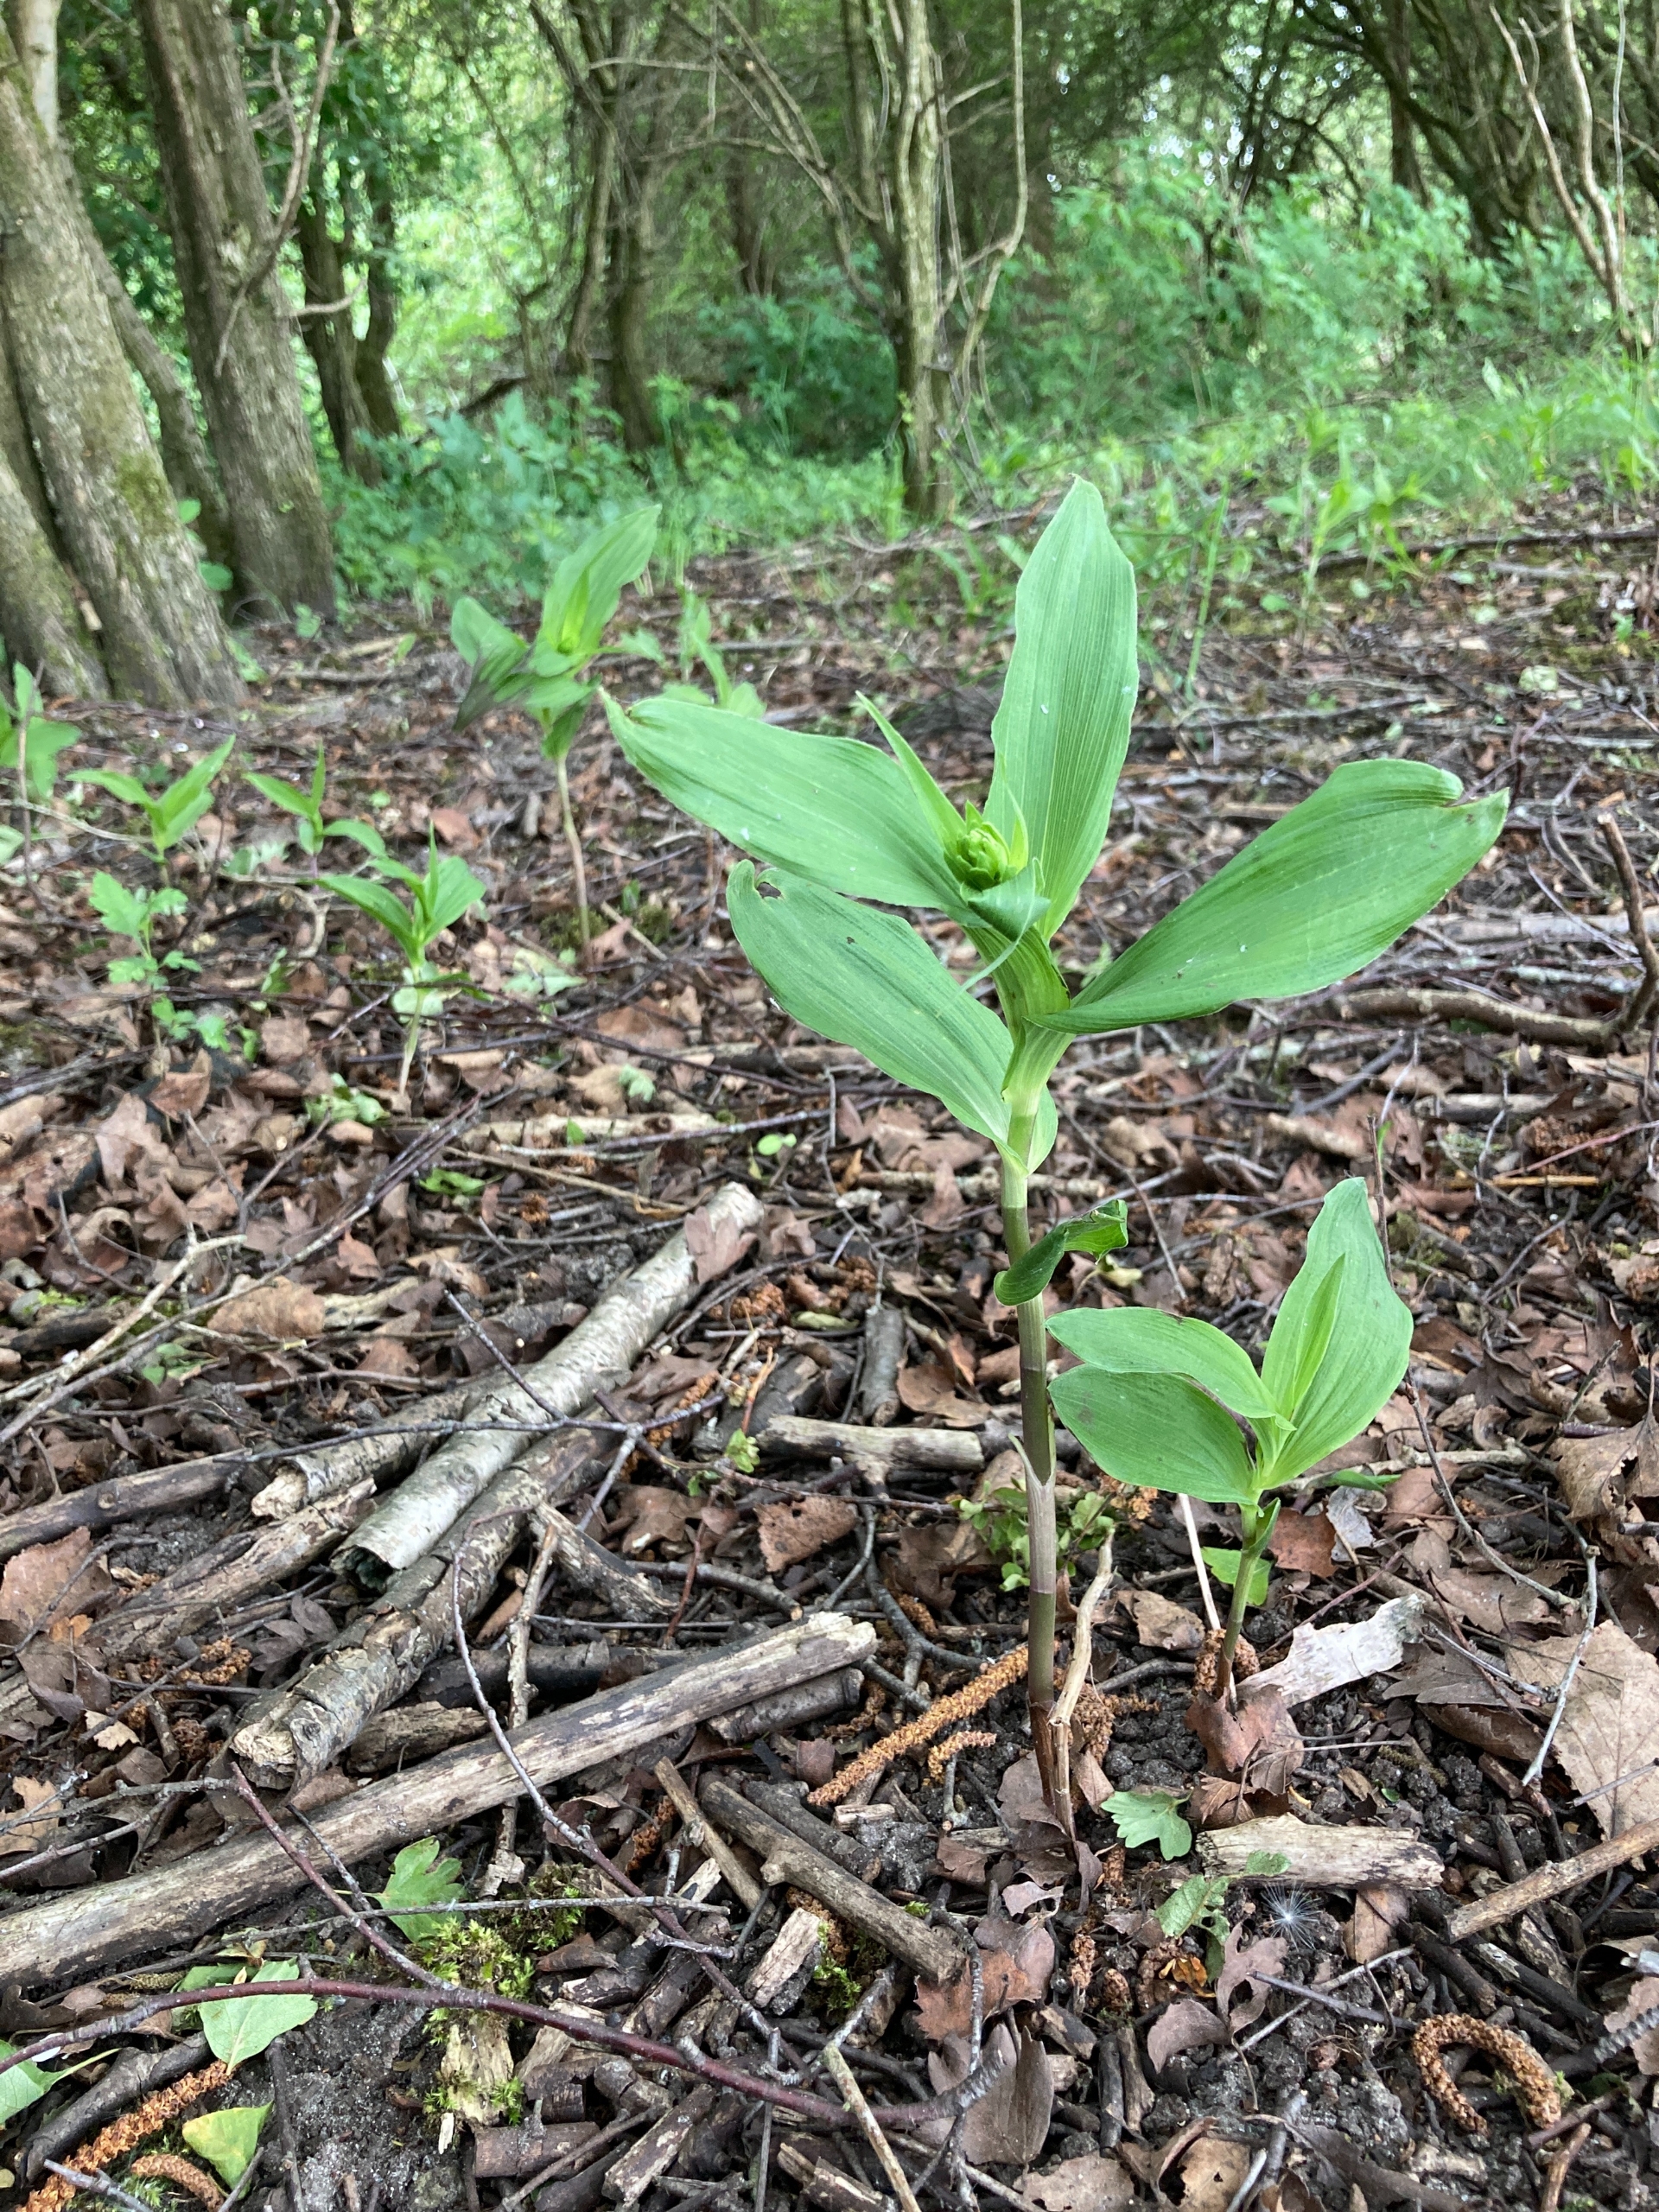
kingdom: Plantae
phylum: Tracheophyta
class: Liliopsida
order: Asparagales
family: Orchidaceae
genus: Epipactis
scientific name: Epipactis helleborine
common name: Skov-hullæbe
